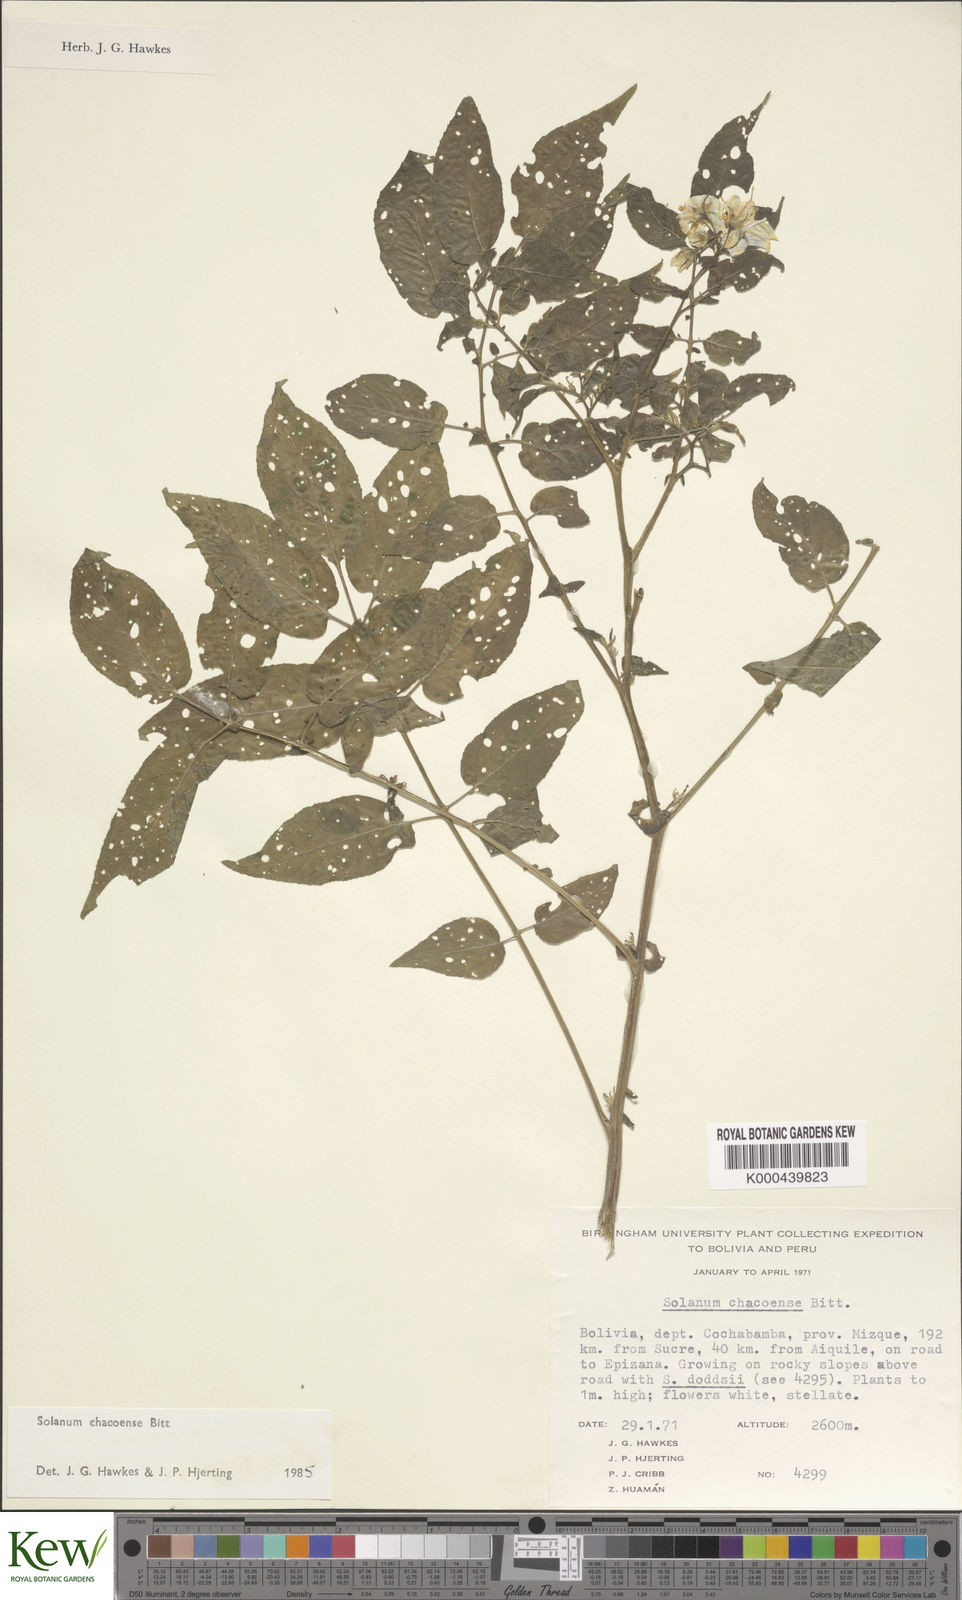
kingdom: Plantae
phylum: Tracheophyta
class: Magnoliopsida
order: Solanales
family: Solanaceae
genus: Solanum
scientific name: Solanum chacoense
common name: Chaco potato
